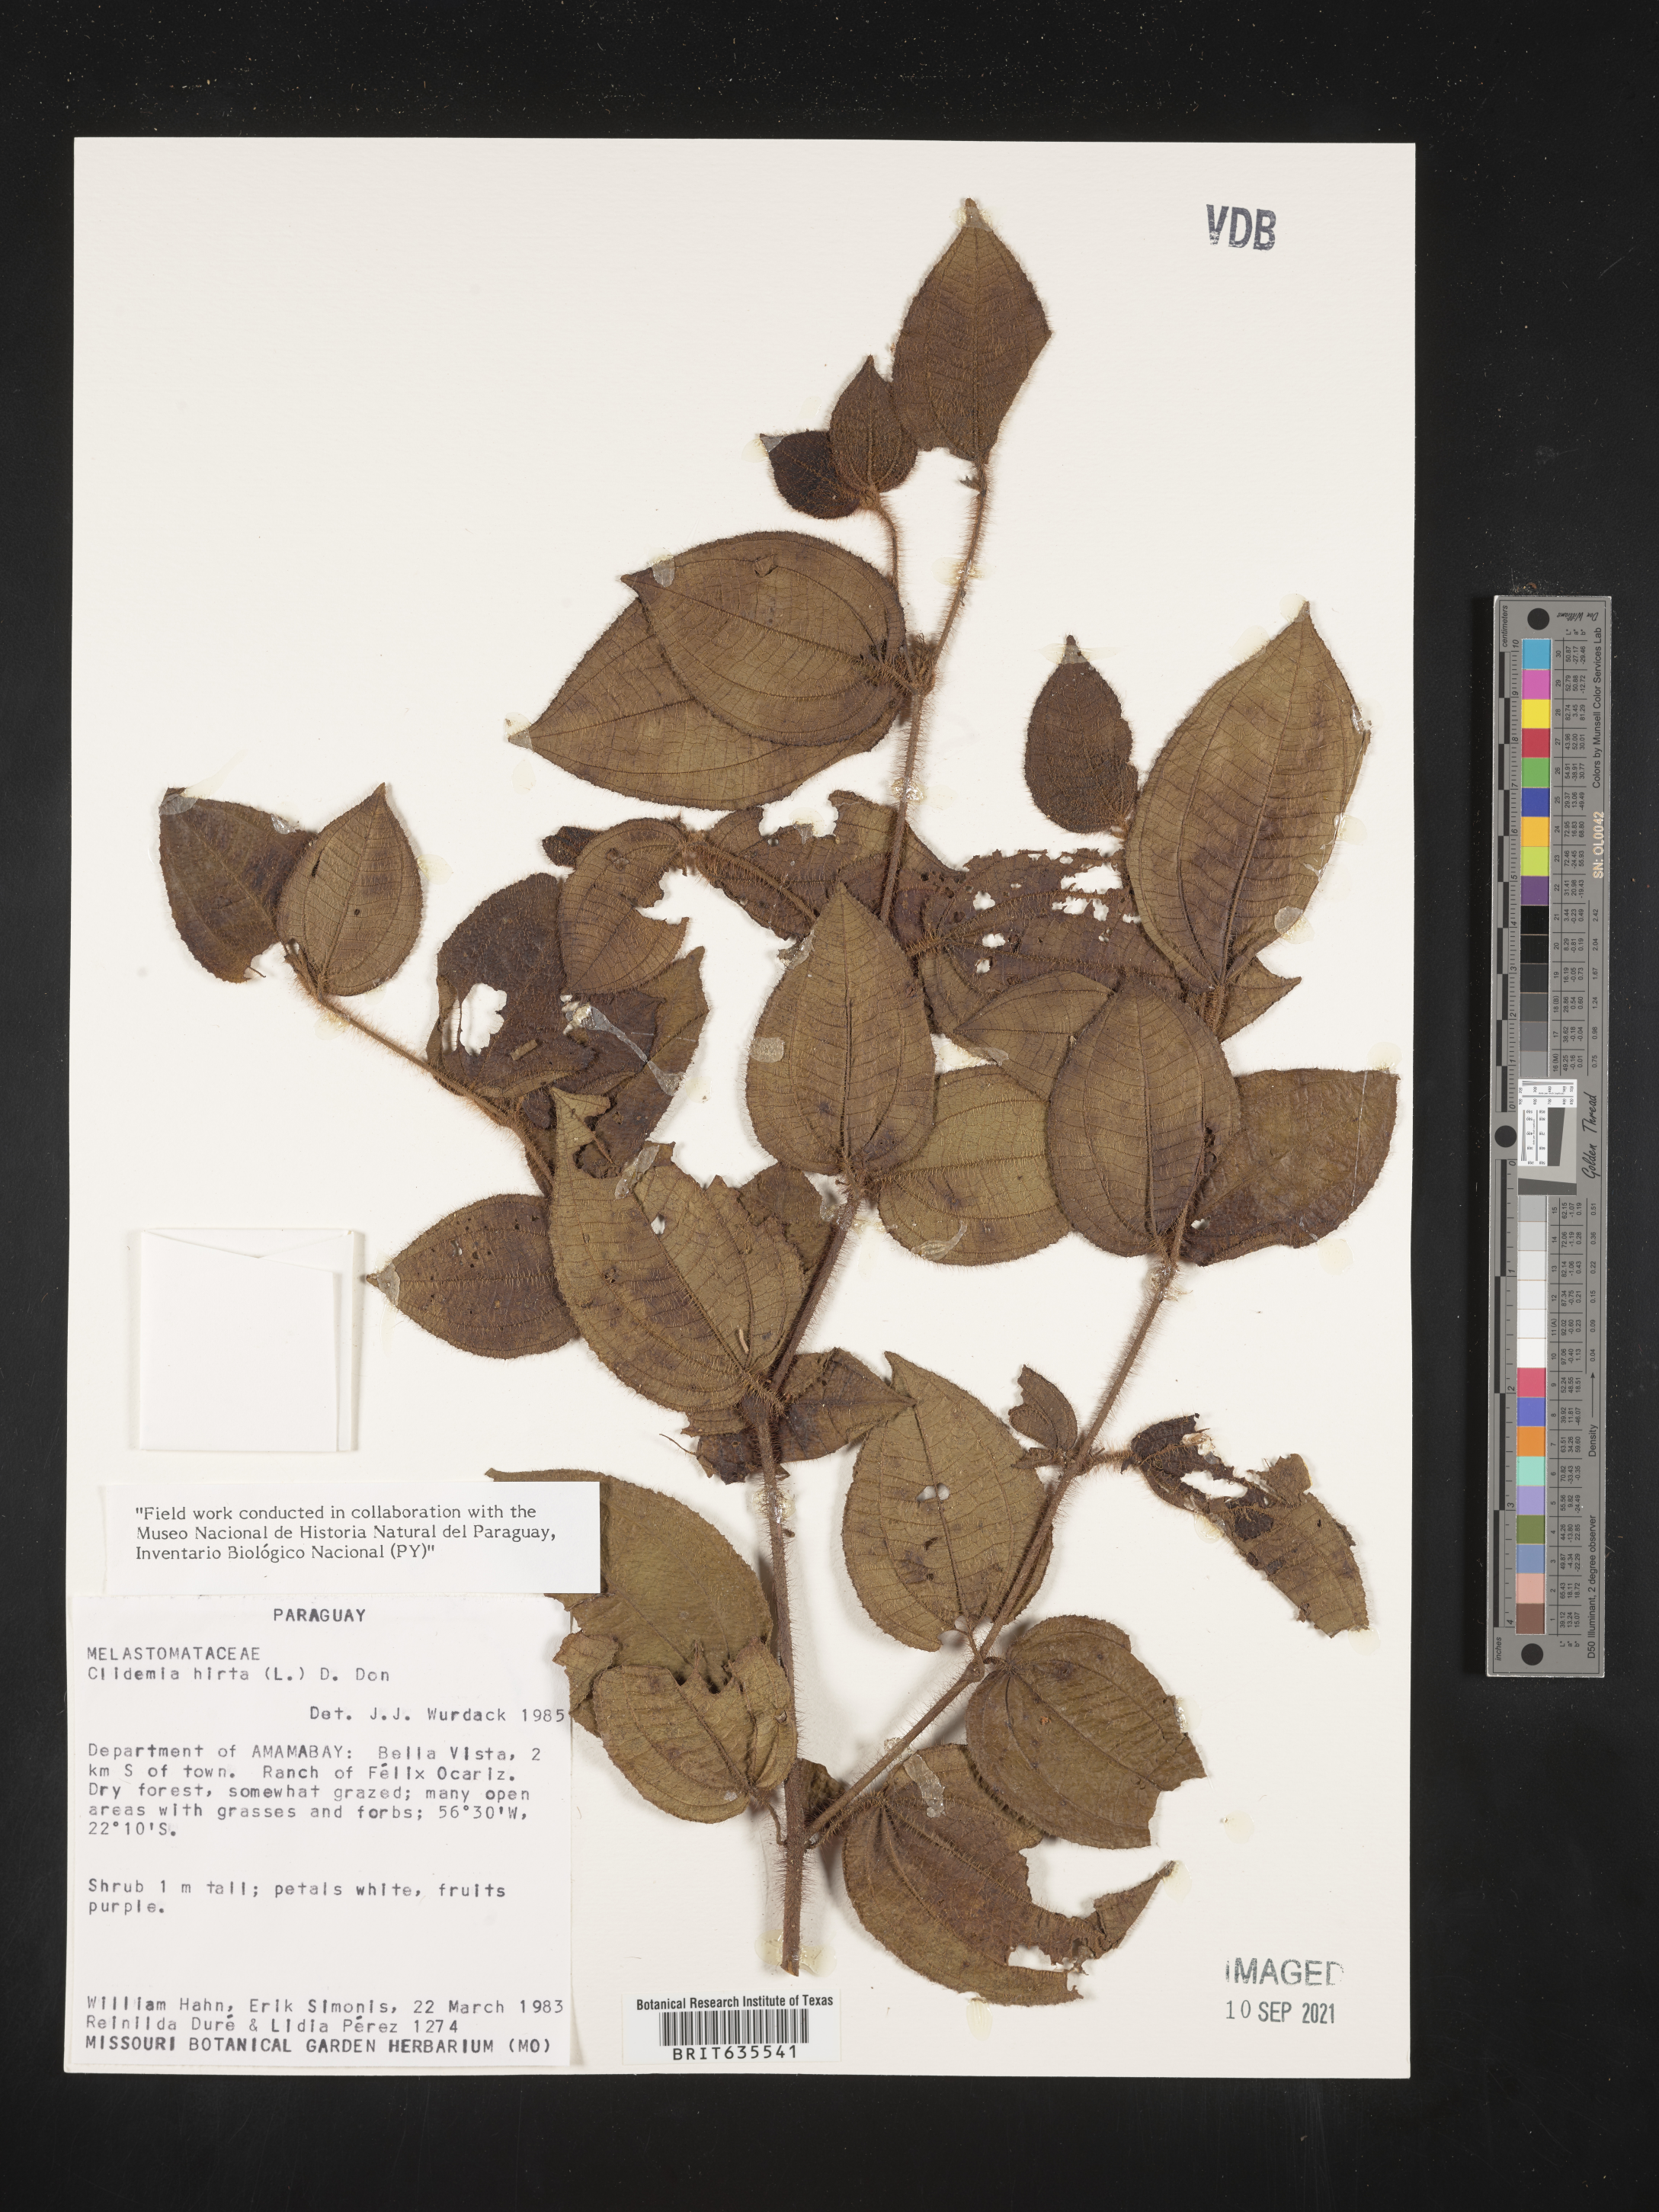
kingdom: Plantae
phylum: Tracheophyta
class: Magnoliopsida
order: Myrtales
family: Melastomataceae
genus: Miconia
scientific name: Miconia
